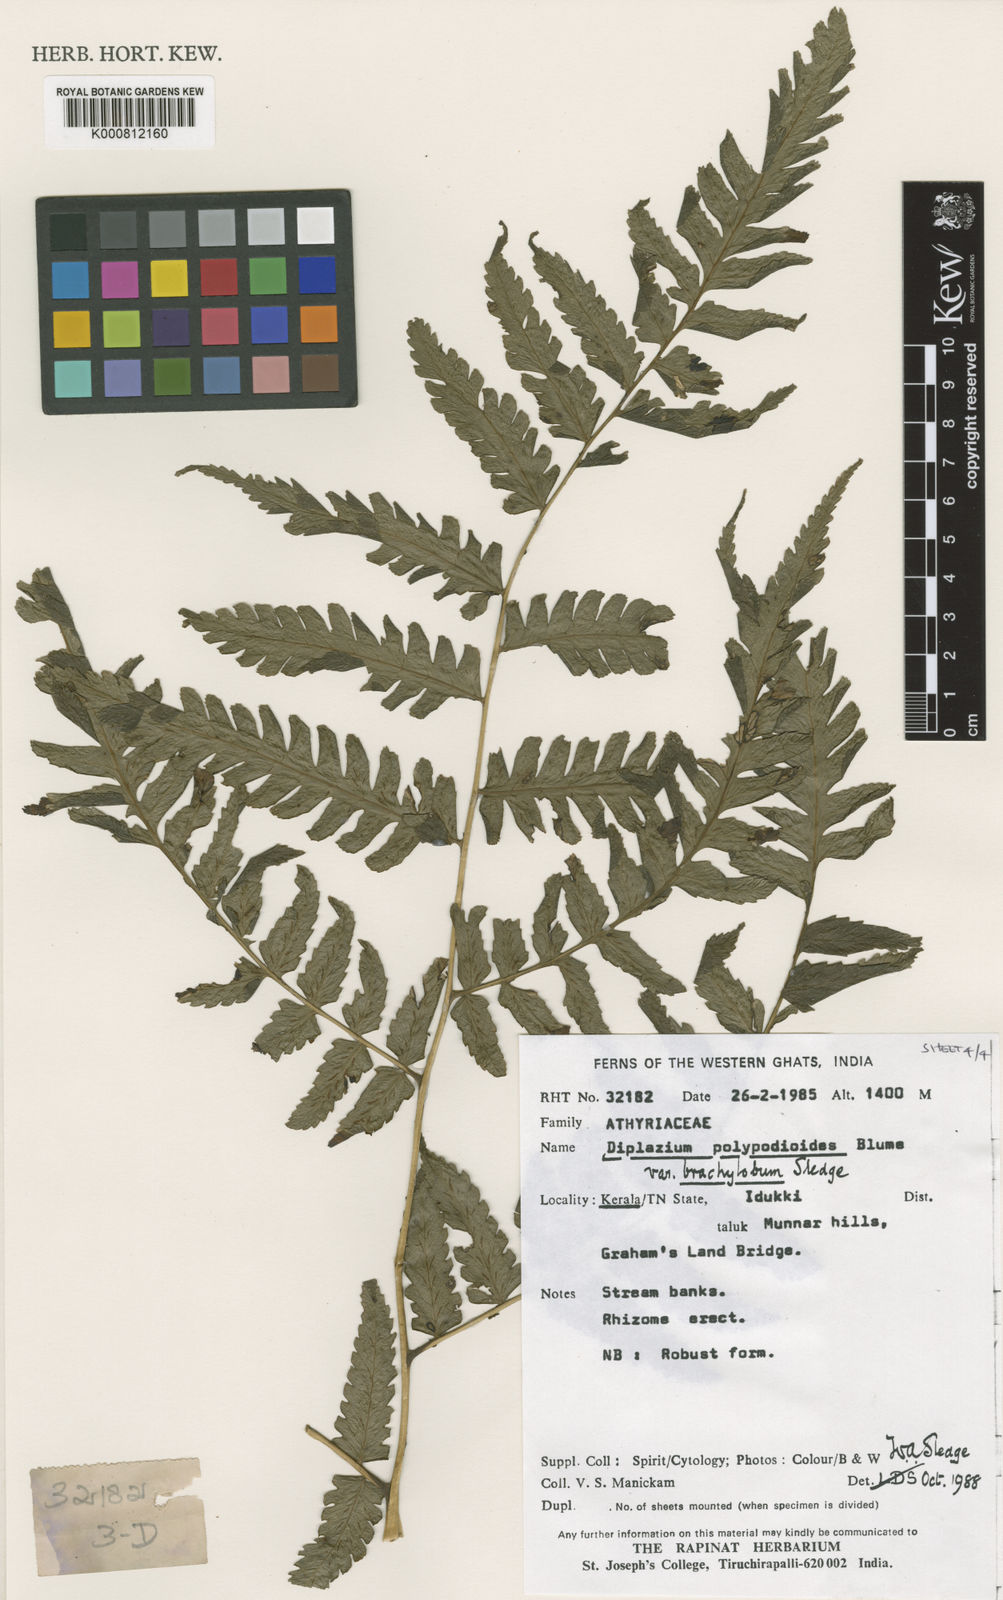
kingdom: Plantae
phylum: Tracheophyta
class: Polypodiopsida
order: Polypodiales
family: Athyriaceae
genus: Diplazium
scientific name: Diplazium polypodioides
